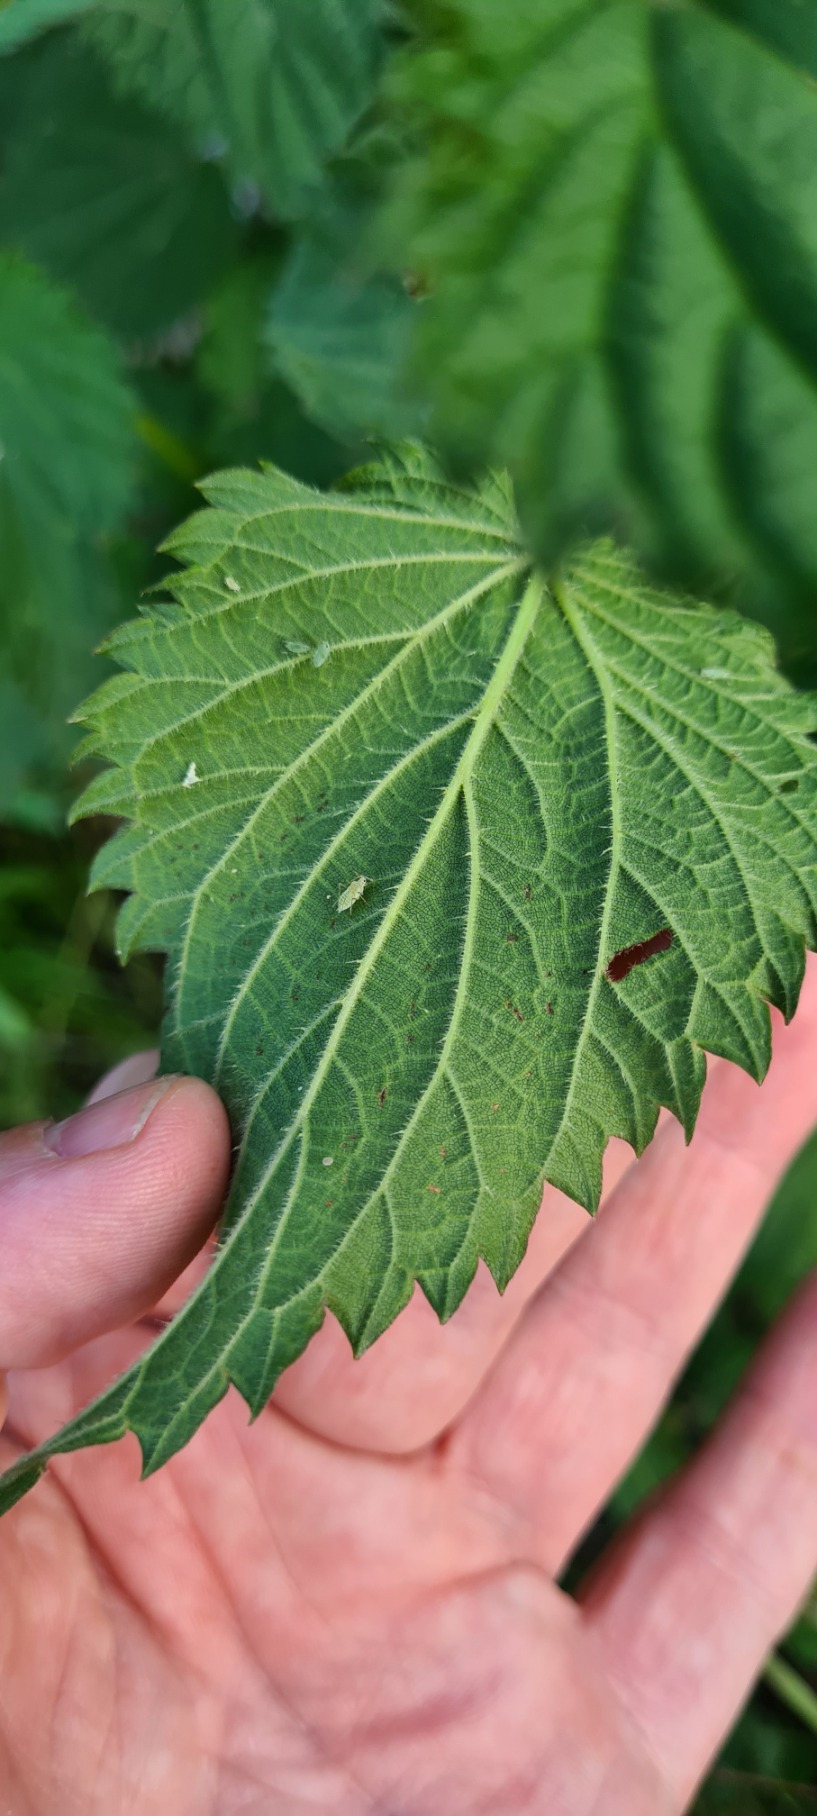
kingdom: Plantae
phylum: Tracheophyta
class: Magnoliopsida
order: Rosales
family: Urticaceae
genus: Urtica
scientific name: Urtica dioica
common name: Stor nælde
